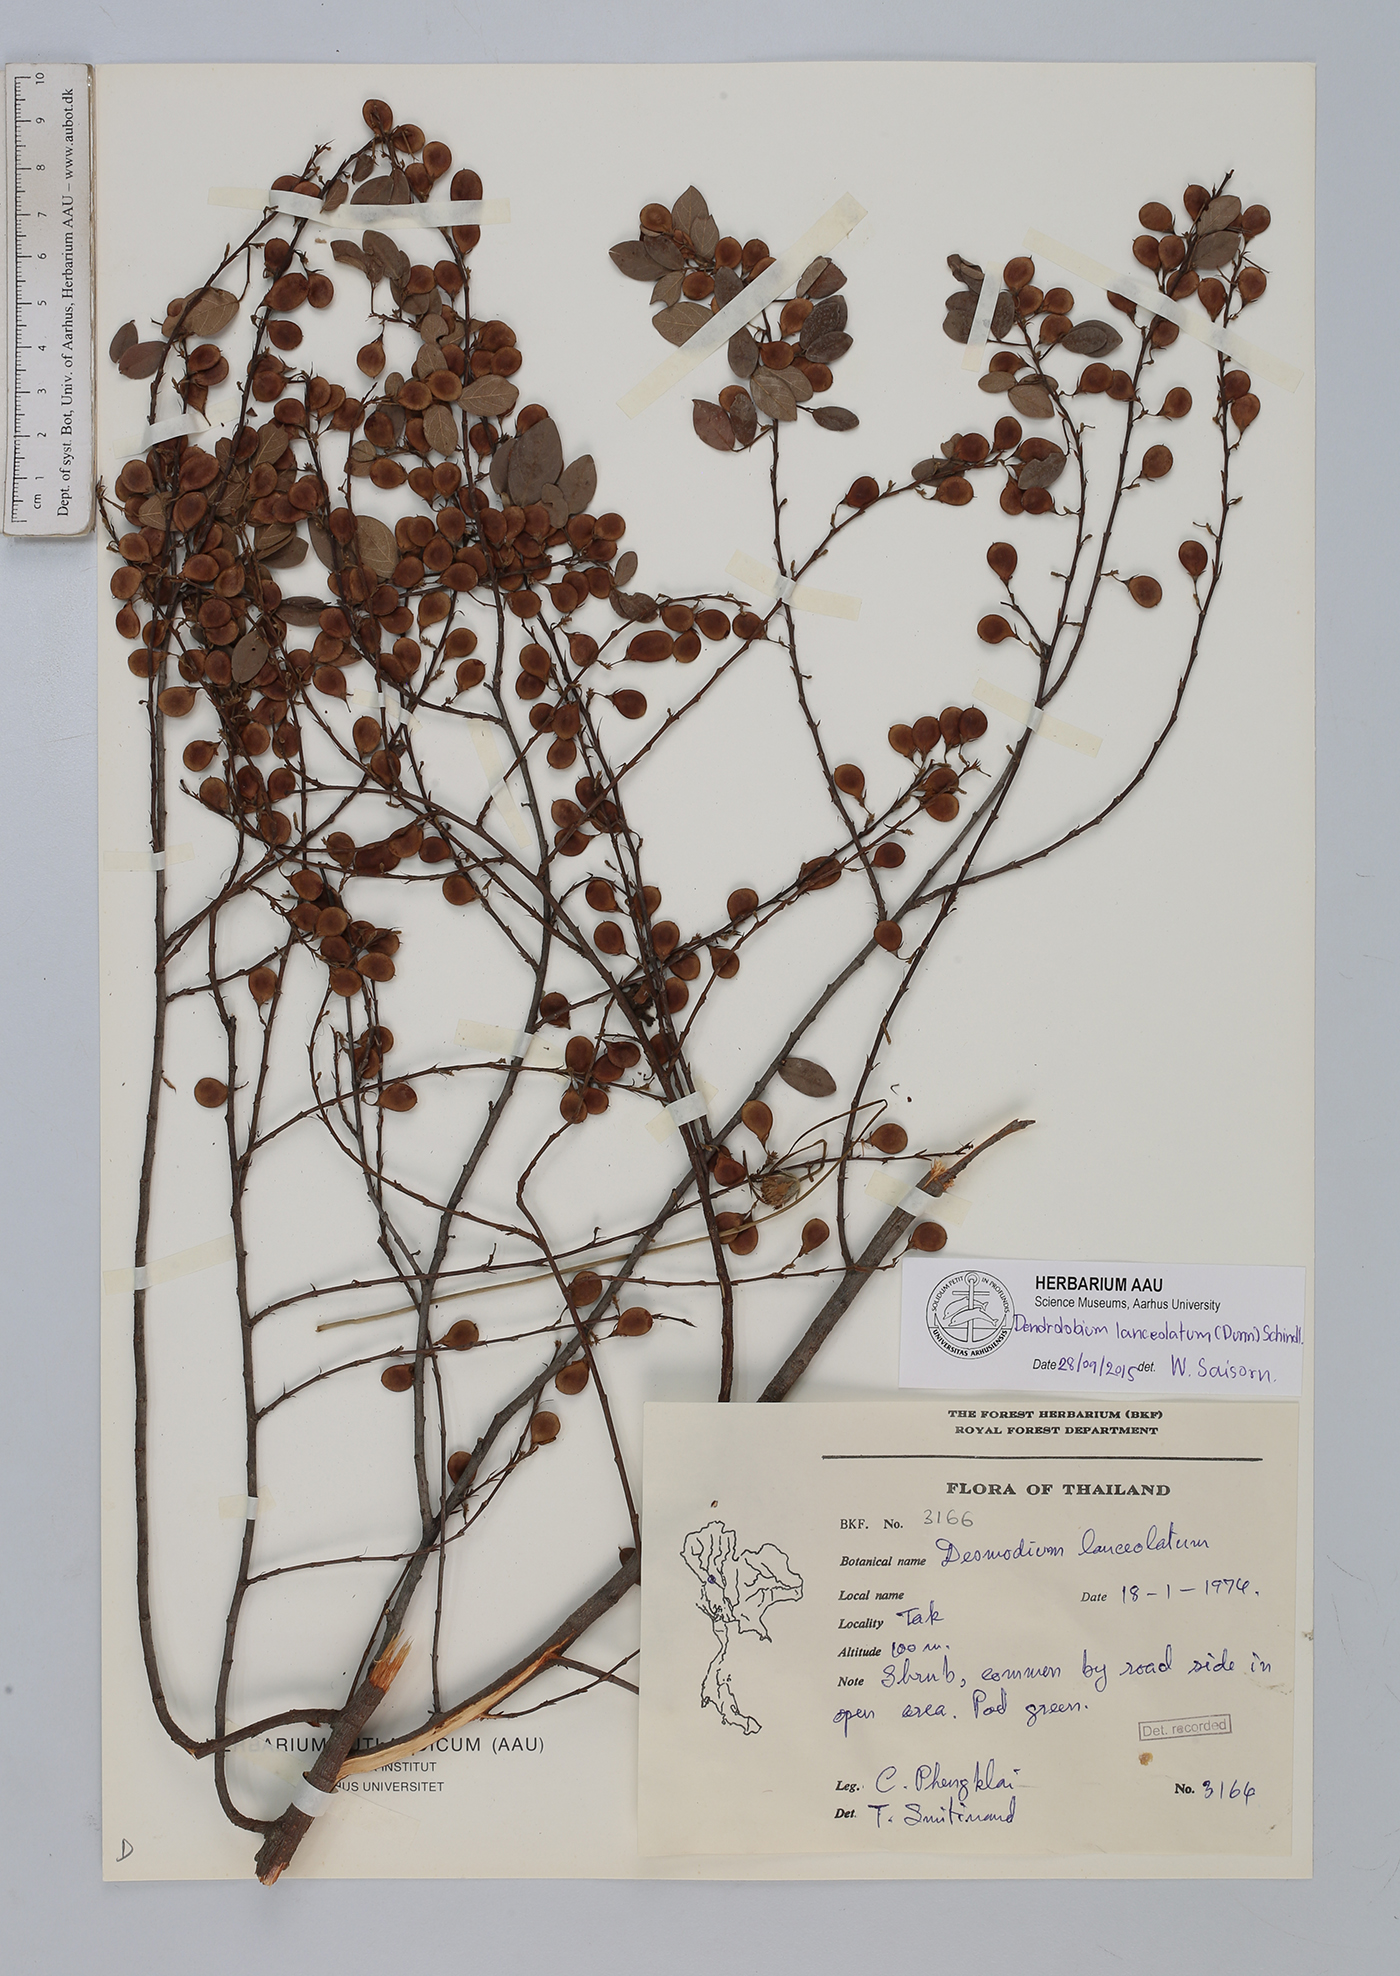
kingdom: Plantae
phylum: Tracheophyta
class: Magnoliopsida
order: Fabales
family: Fabaceae
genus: Dendrolobium
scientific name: Dendrolobium lanceolatum
